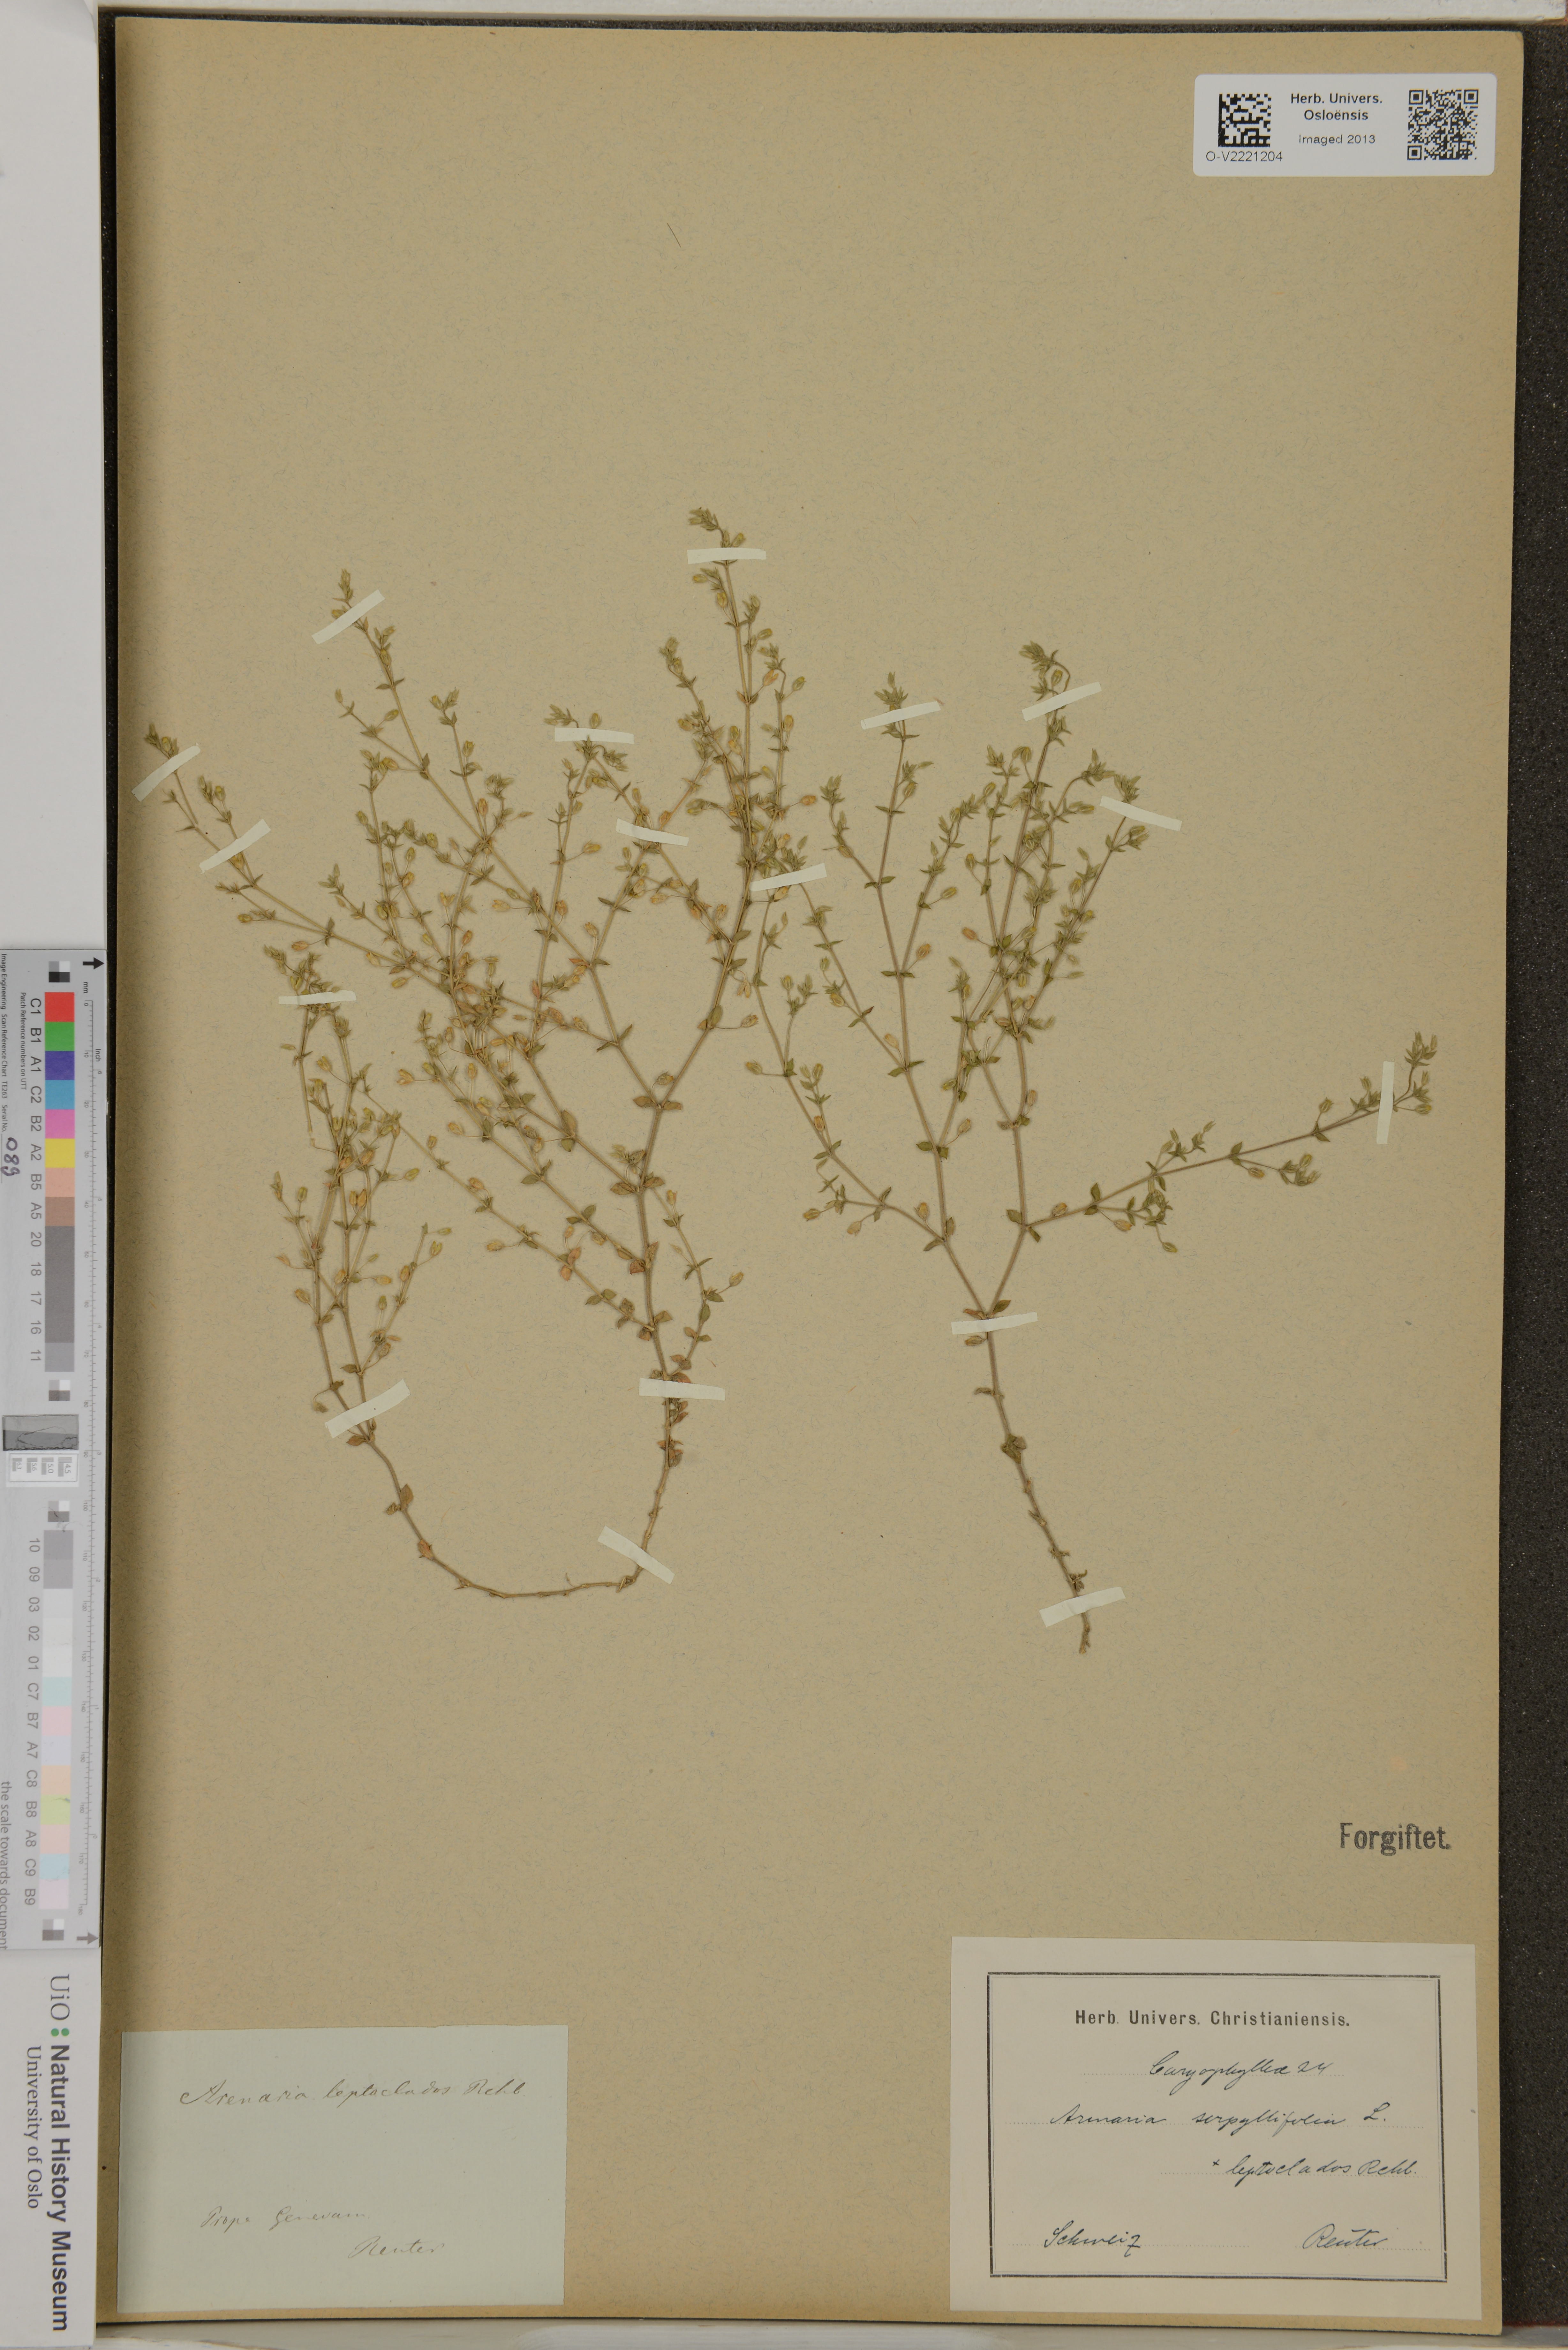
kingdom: Plantae
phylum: Tracheophyta
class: Magnoliopsida
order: Caryophyllales
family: Caryophyllaceae
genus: Arenaria
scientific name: Arenaria leptoclados
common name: Thyme-leaved sandwort
